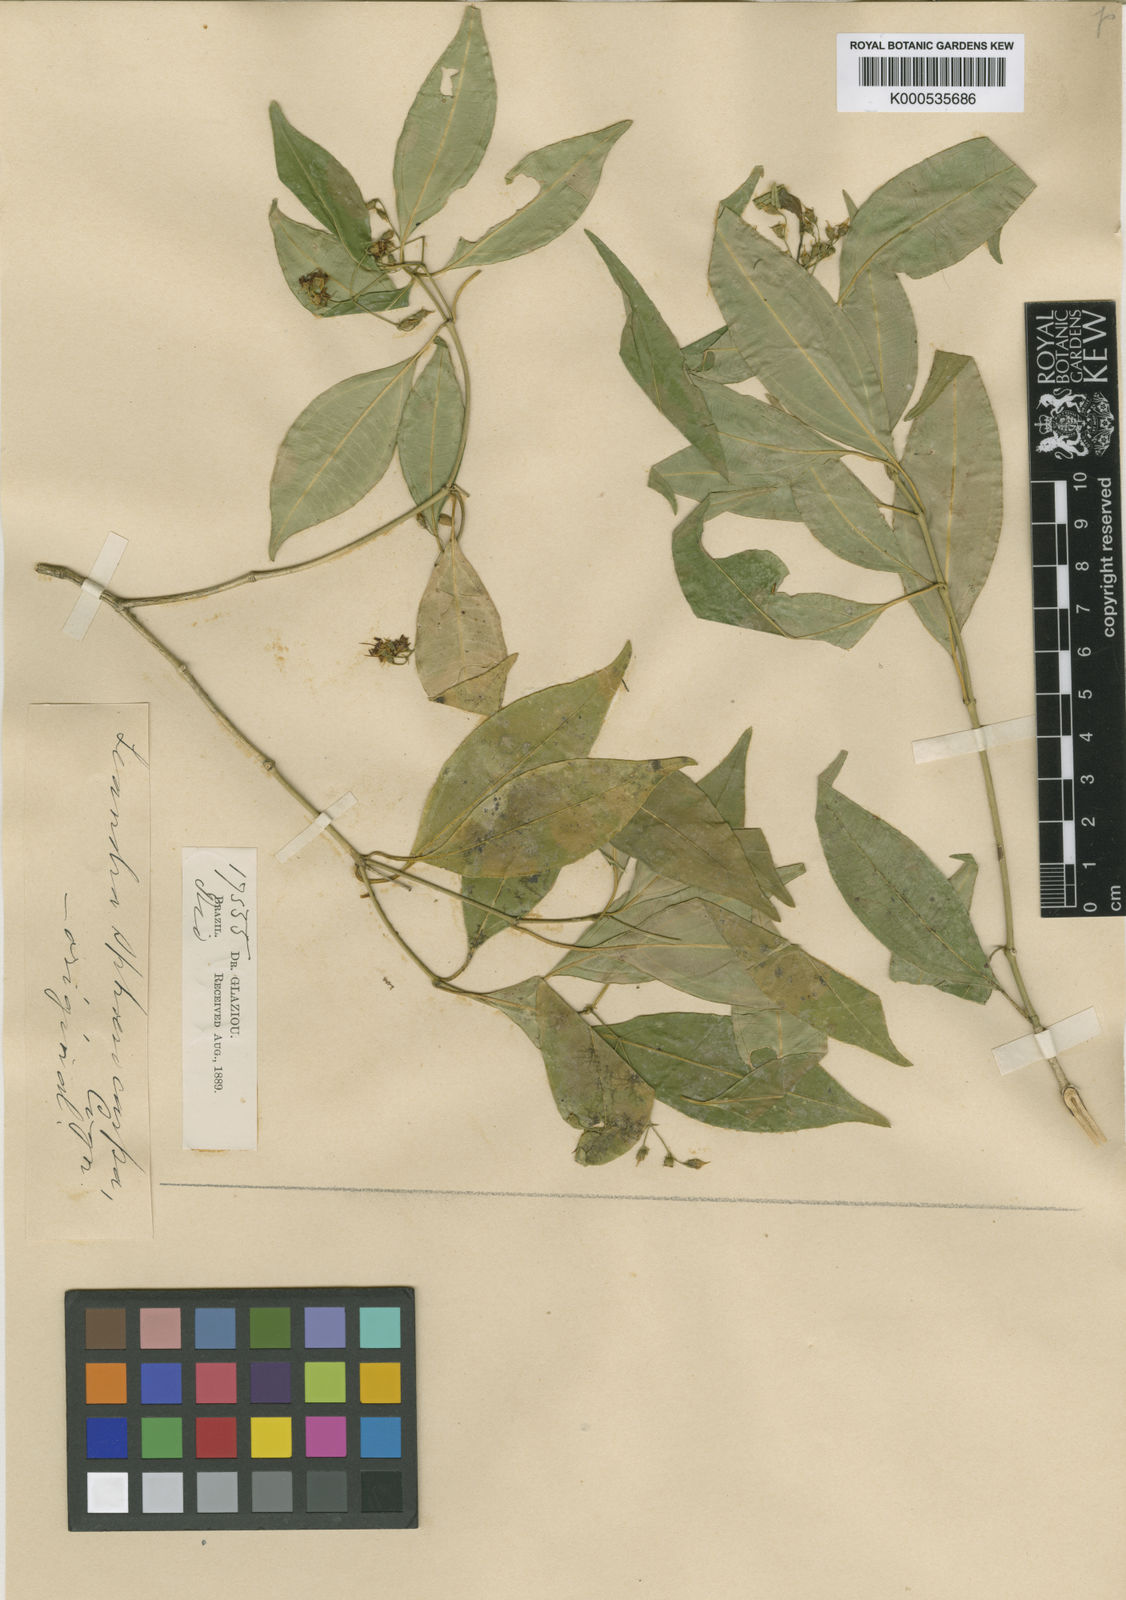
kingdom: Plantae
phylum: Tracheophyta
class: Magnoliopsida
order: Myrtales
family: Melastomataceae
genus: Miconia
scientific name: Miconia sphaerocarpa
